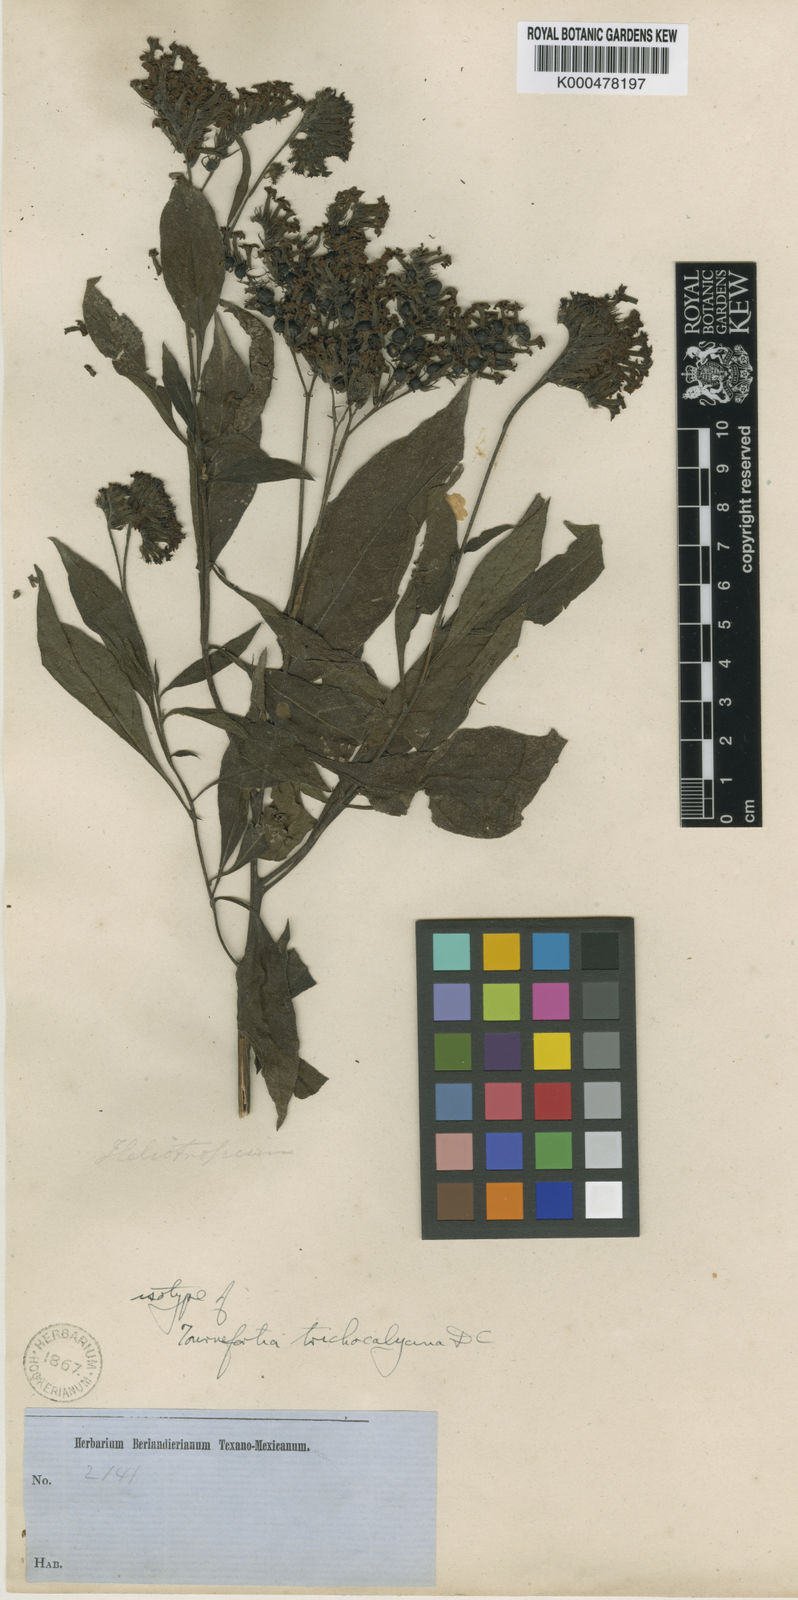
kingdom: Plantae
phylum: Tracheophyta
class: Magnoliopsida
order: Boraginales
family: Heliotropiaceae
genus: Tournefortia
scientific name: Tournefortia mutabilis
